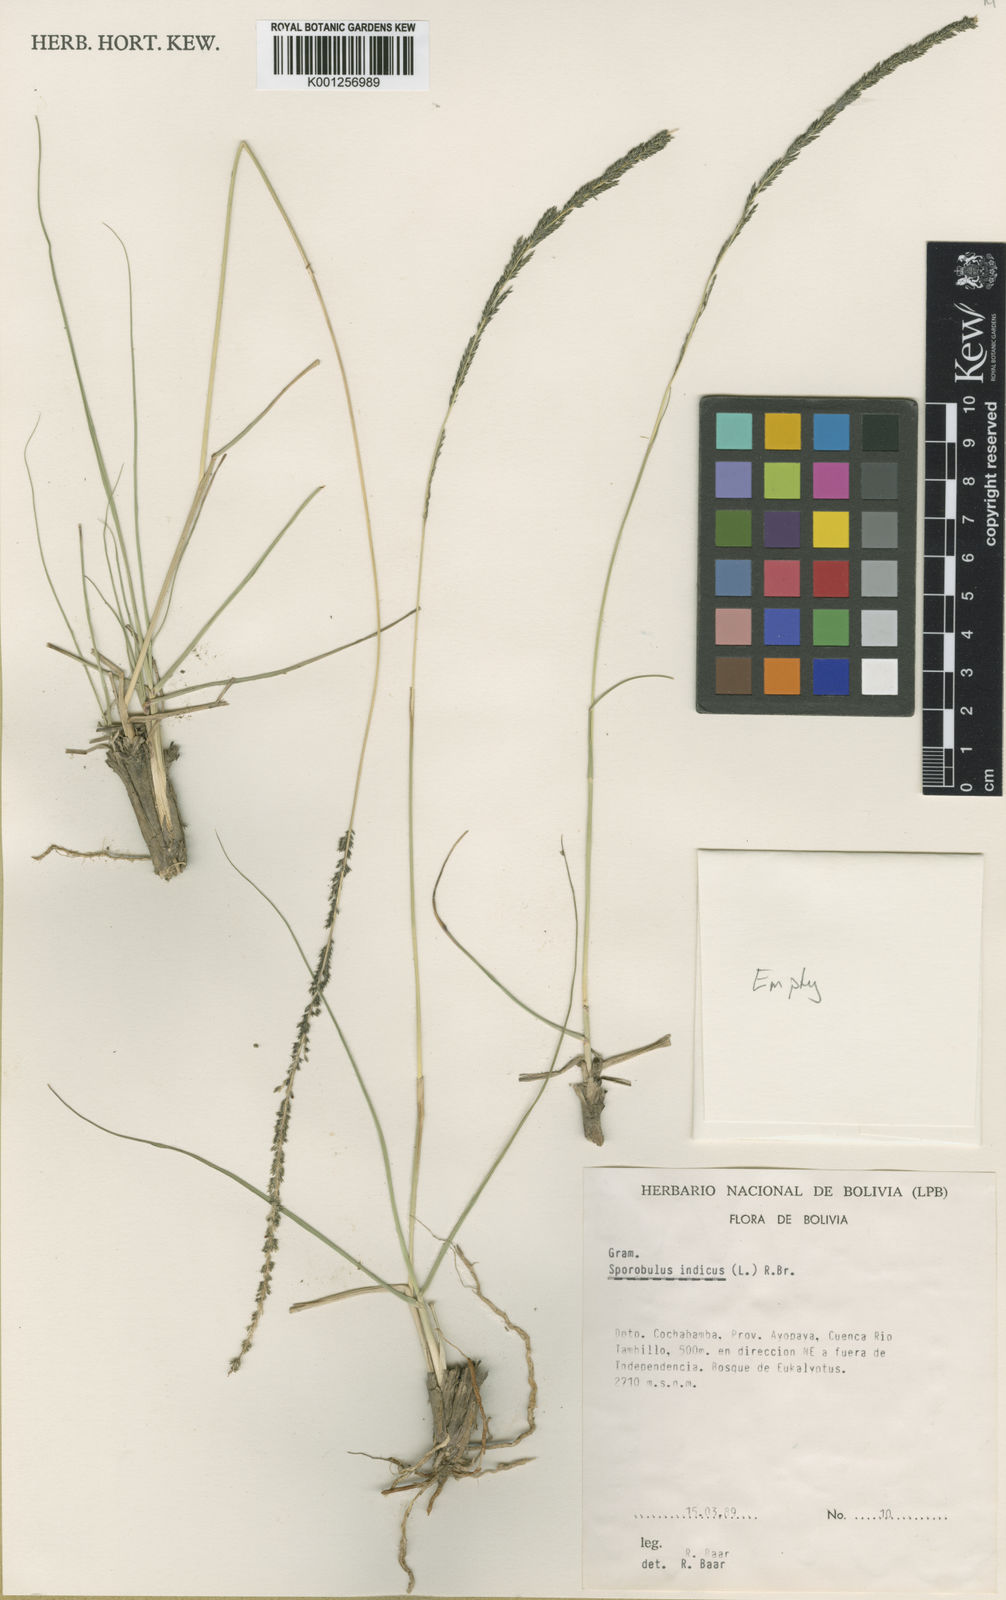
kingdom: Plantae
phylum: Tracheophyta
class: Liliopsida
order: Poales
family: Poaceae
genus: Sporobolus
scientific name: Sporobolus indicus
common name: Smut grass
